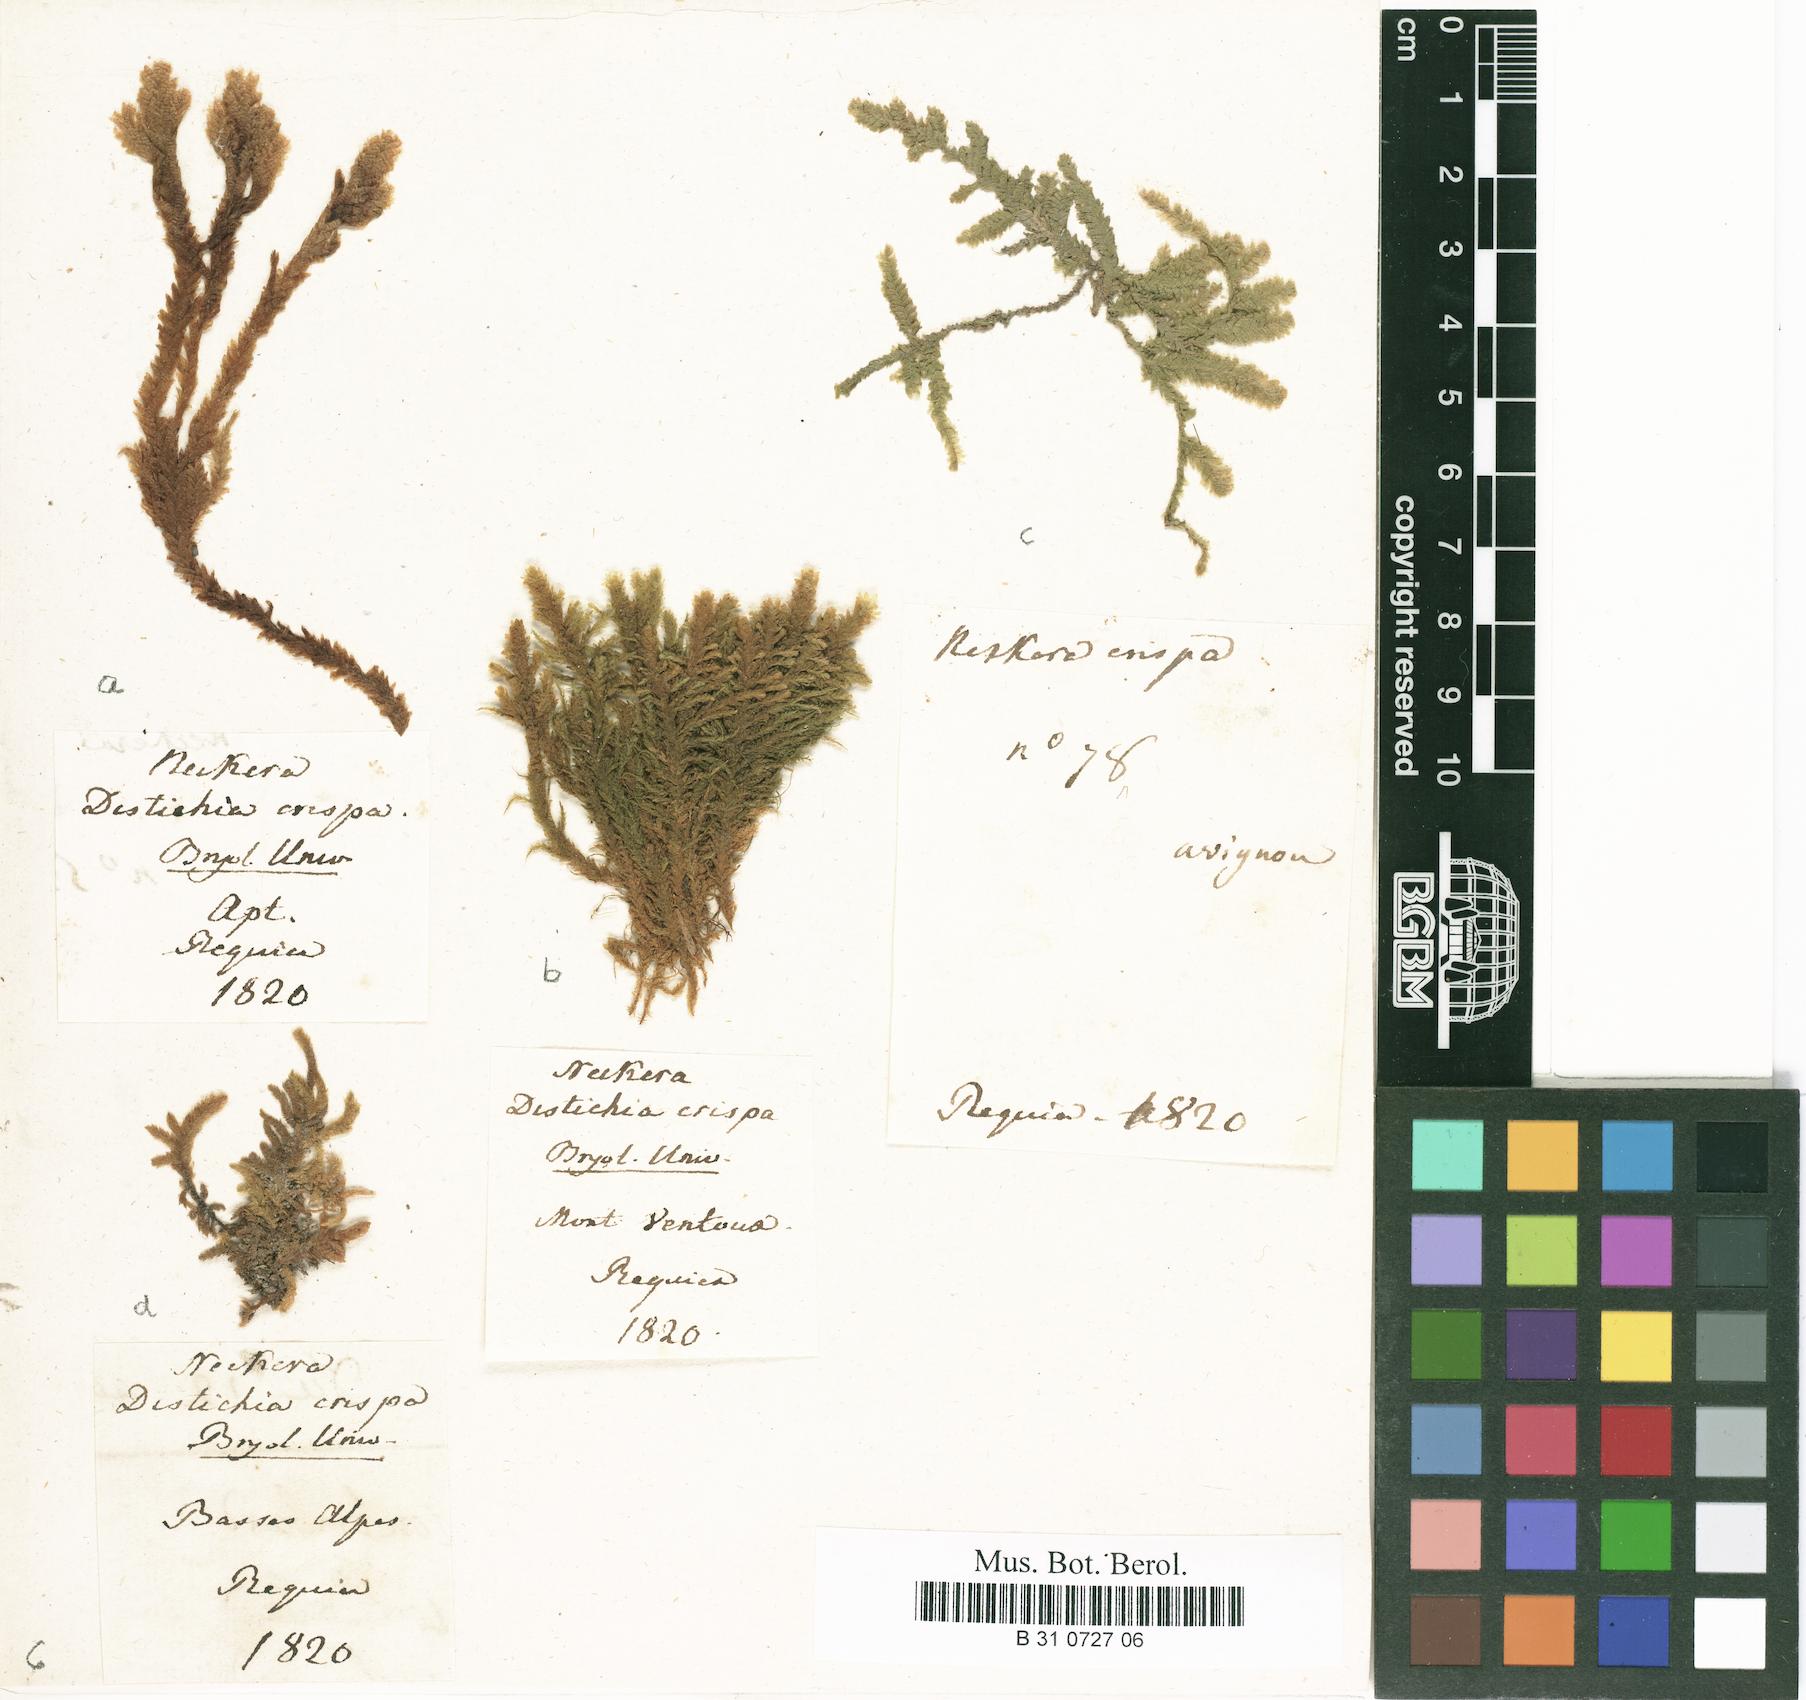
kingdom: Plantae
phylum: Bryophyta
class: Bryopsida
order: Hypnales
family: Neckeraceae
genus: Exsertotheca
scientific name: Exsertotheca crispa
